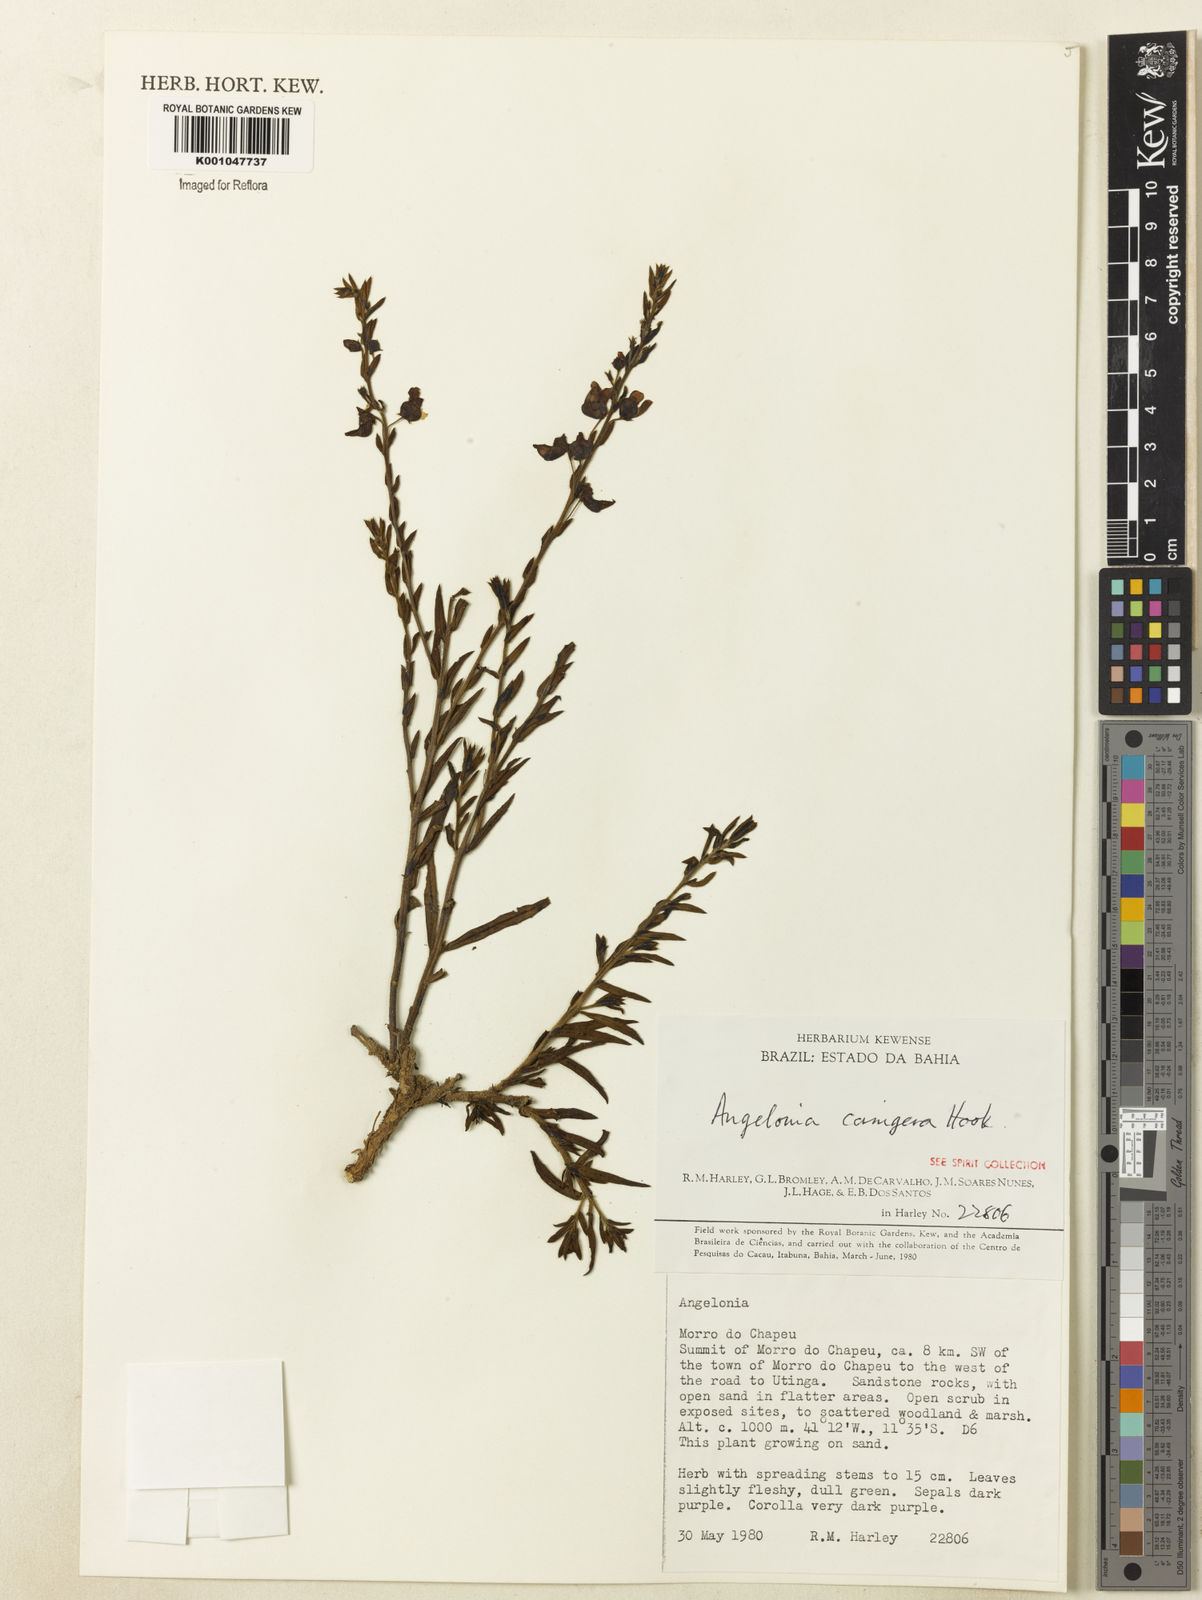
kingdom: Plantae
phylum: Tracheophyta
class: Magnoliopsida
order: Lamiales
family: Plantaginaceae
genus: Angelonia
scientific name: Angelonia cornigera
